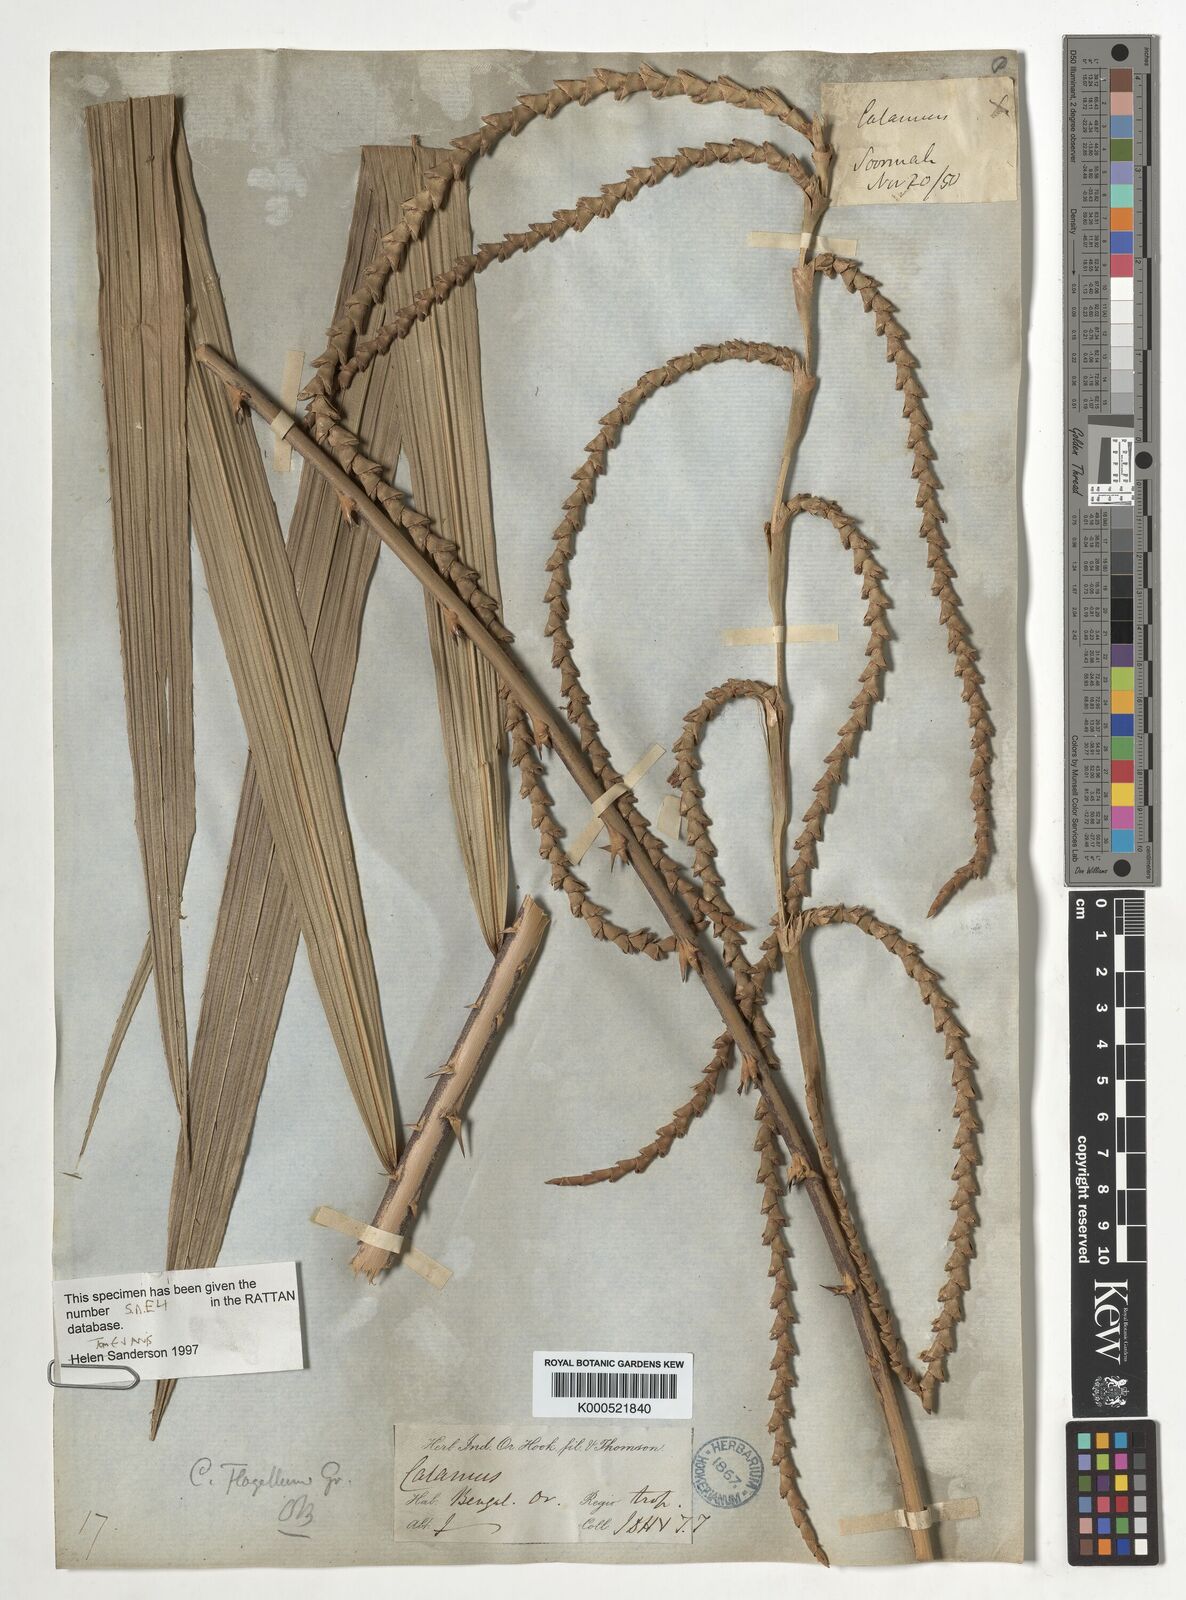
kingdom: Plantae
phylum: Tracheophyta
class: Liliopsida
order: Arecales
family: Arecaceae
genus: Calamus
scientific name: Calamus
